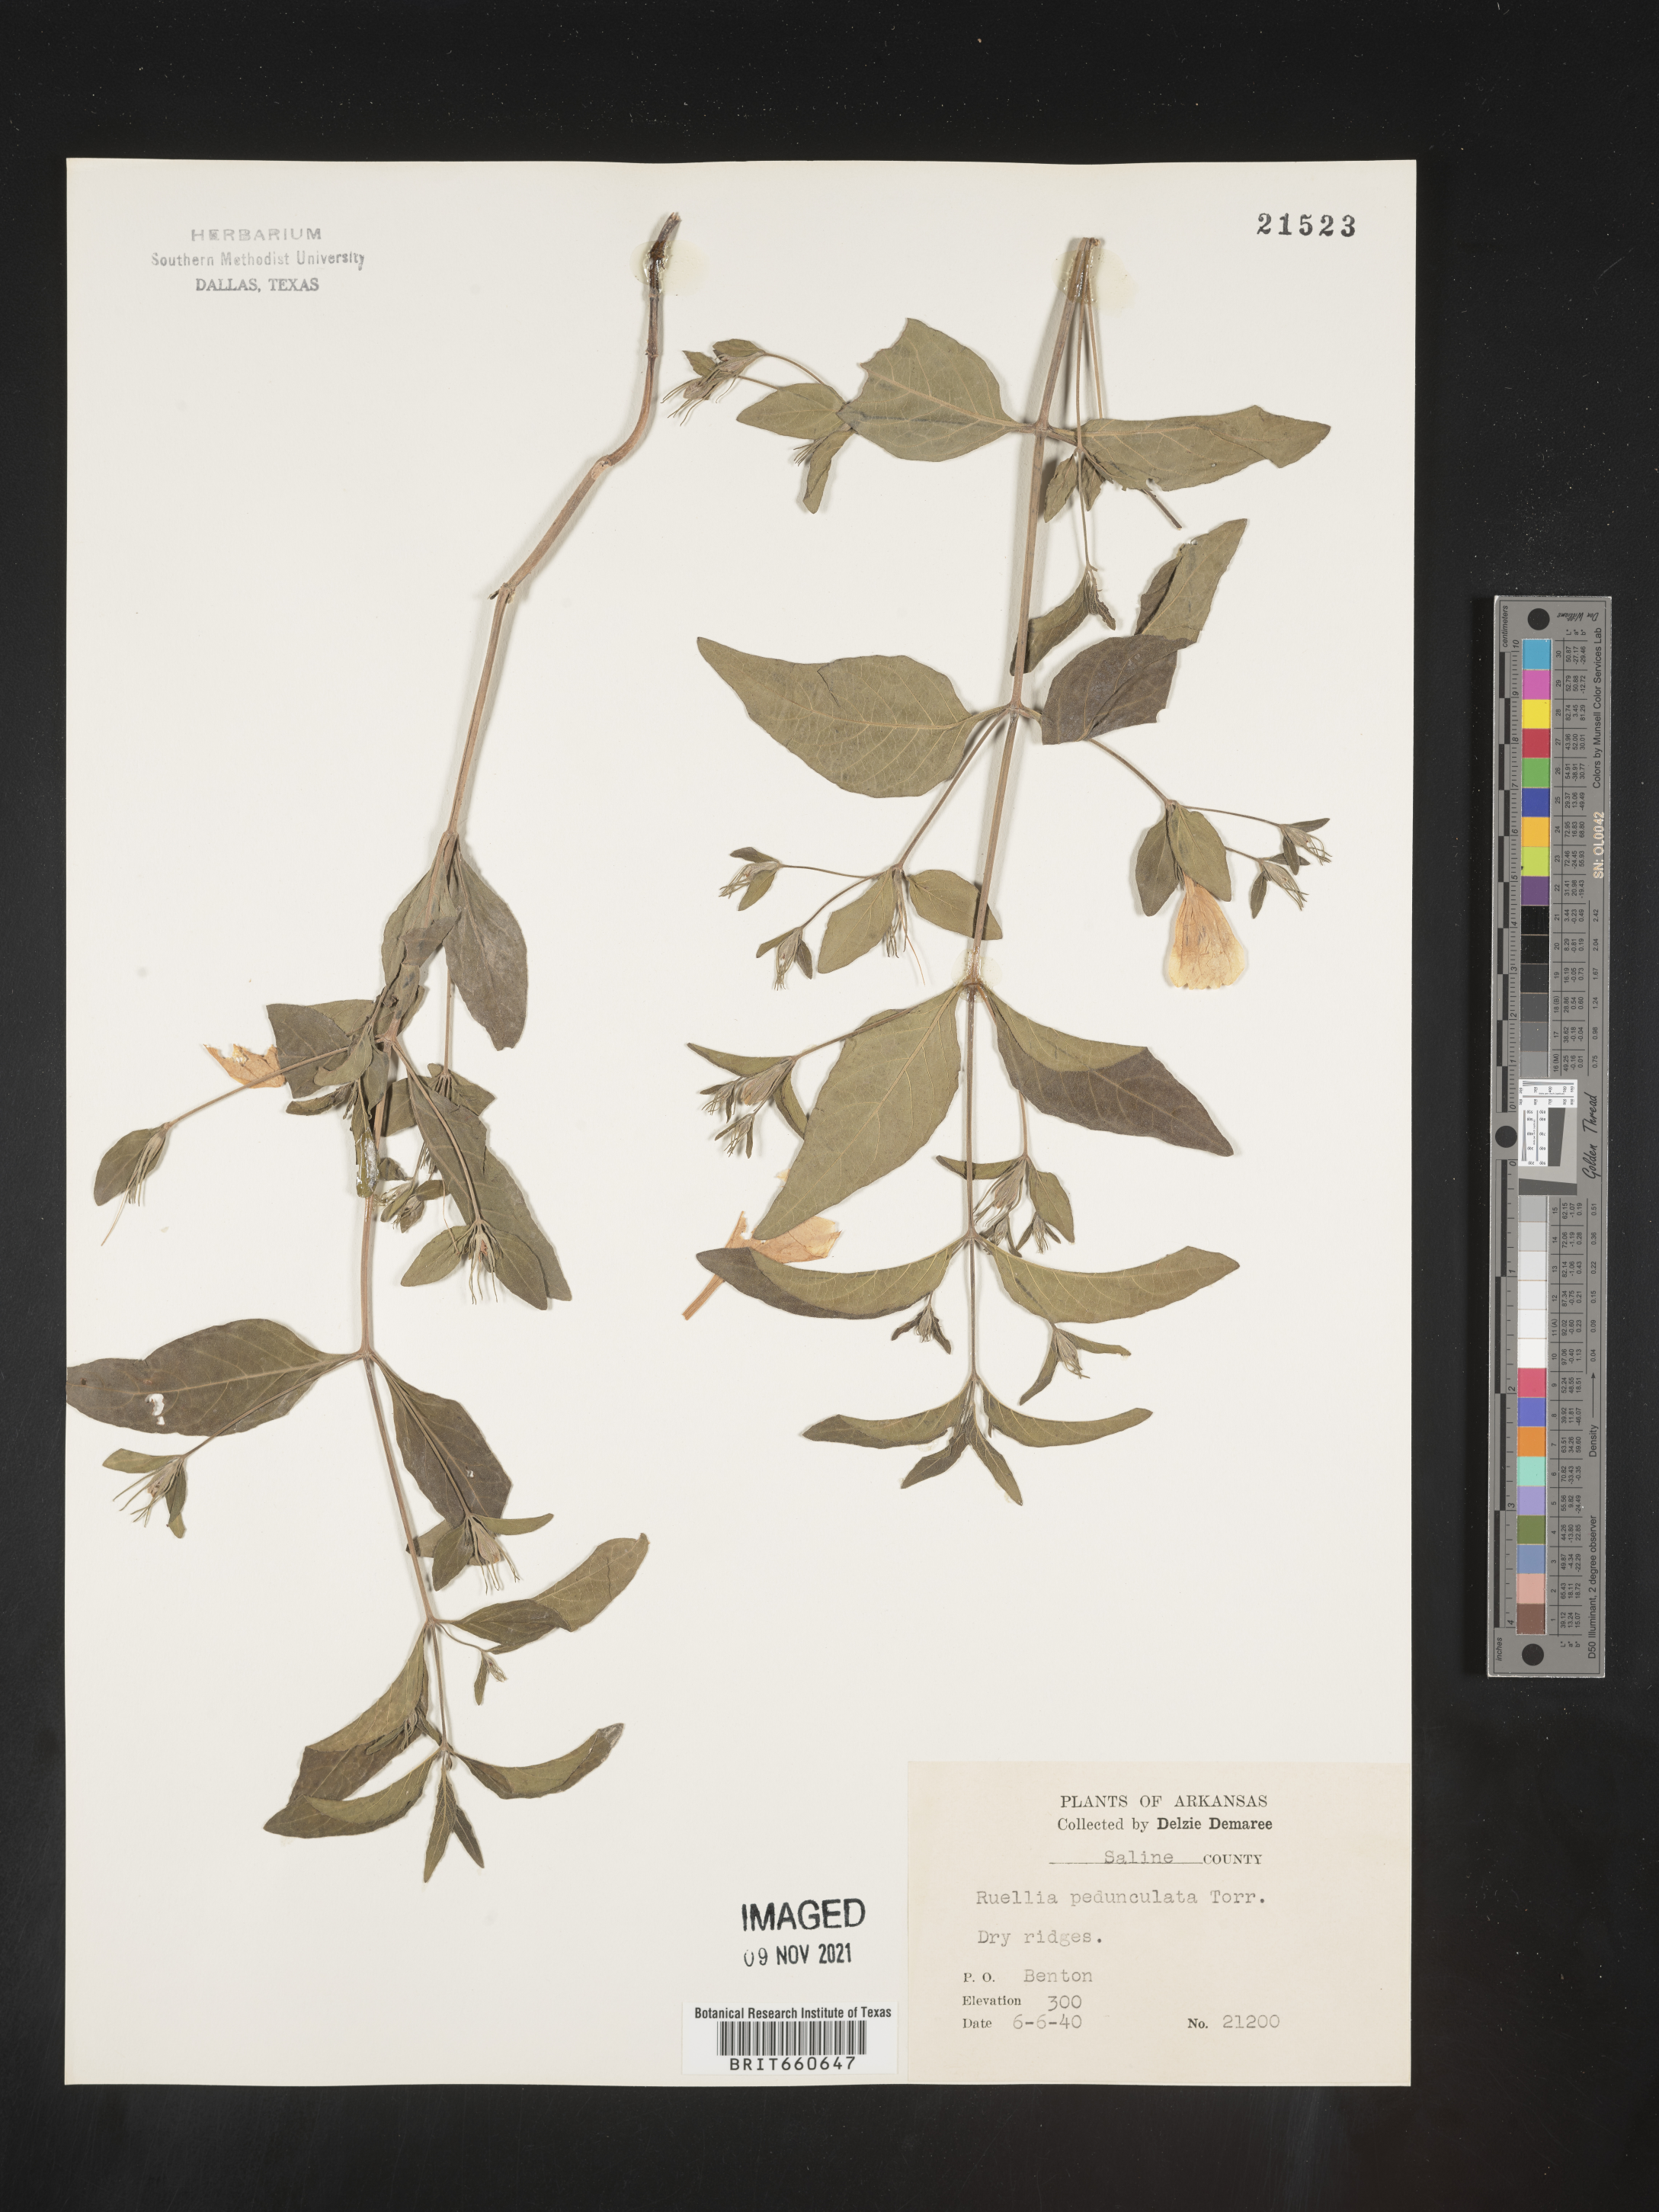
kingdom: Plantae
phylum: Tracheophyta
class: Magnoliopsida
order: Lamiales
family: Acanthaceae
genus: Ruellia
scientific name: Ruellia pedunculata
